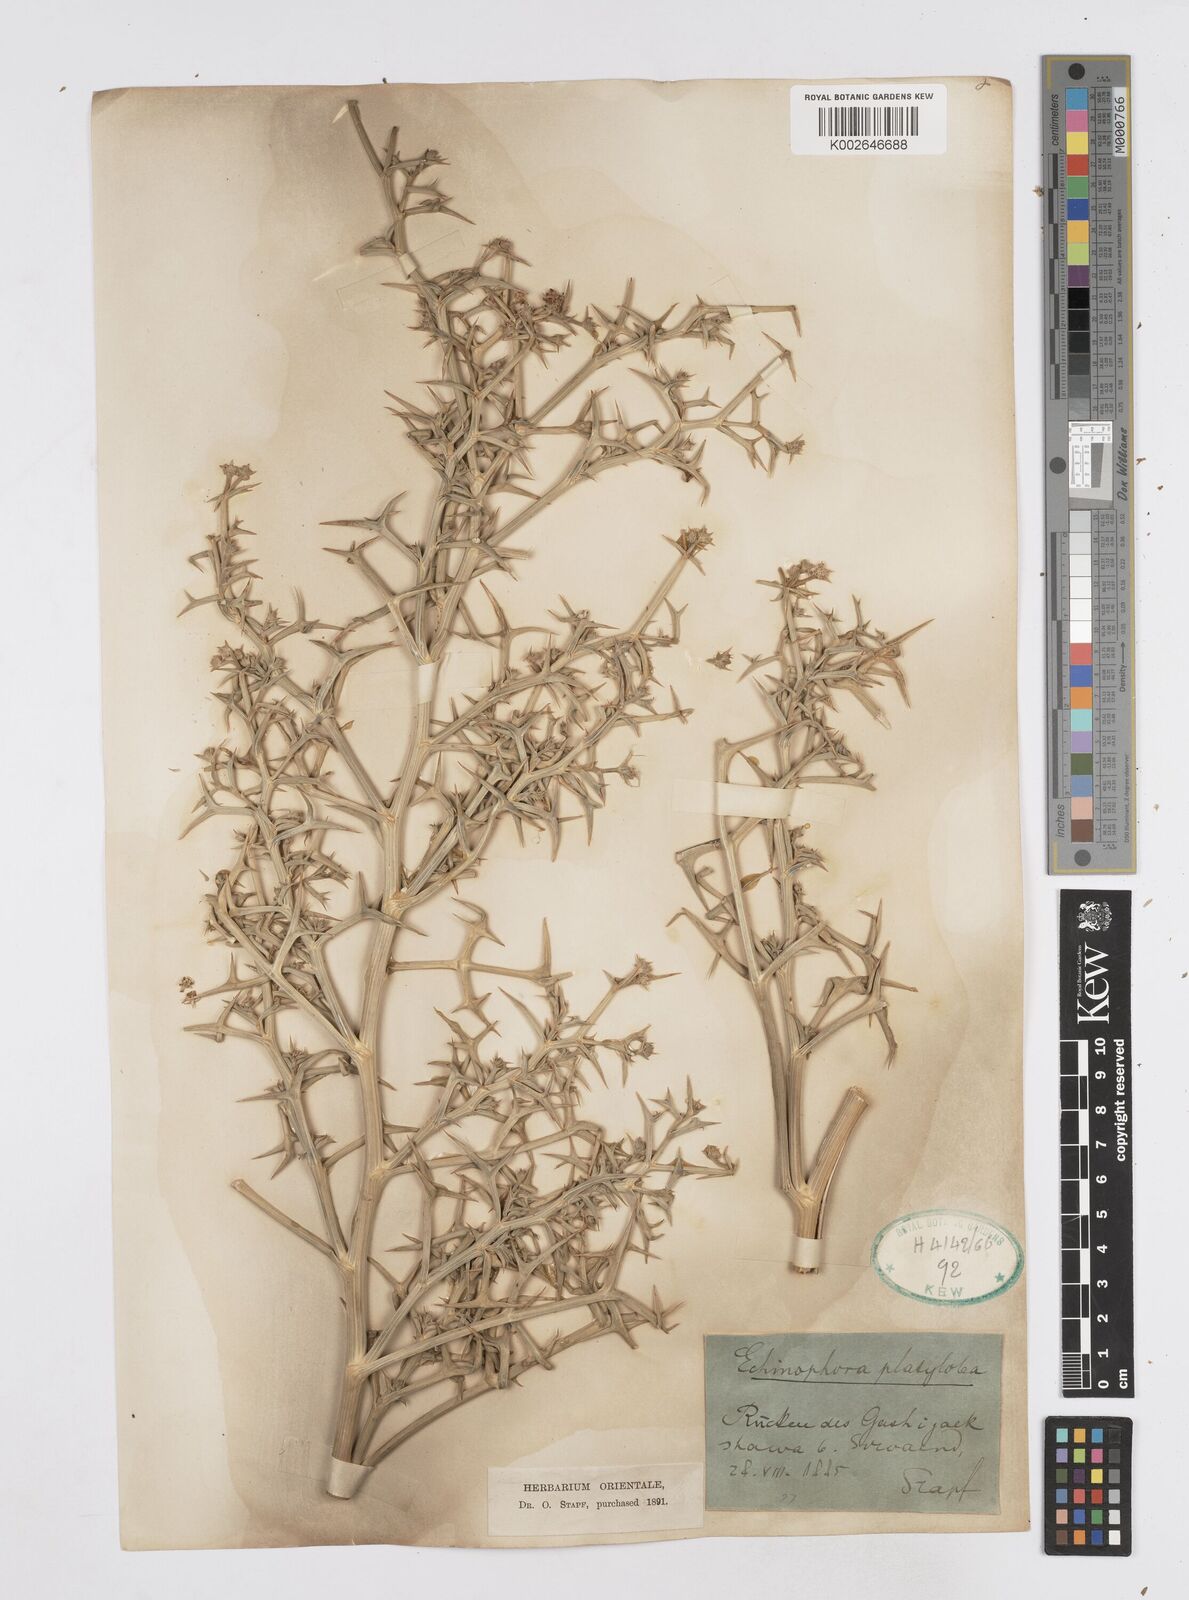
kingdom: Plantae
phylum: Tracheophyta
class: Magnoliopsida
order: Apiales
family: Apiaceae
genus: Echinophora
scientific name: Echinophora platyloba
